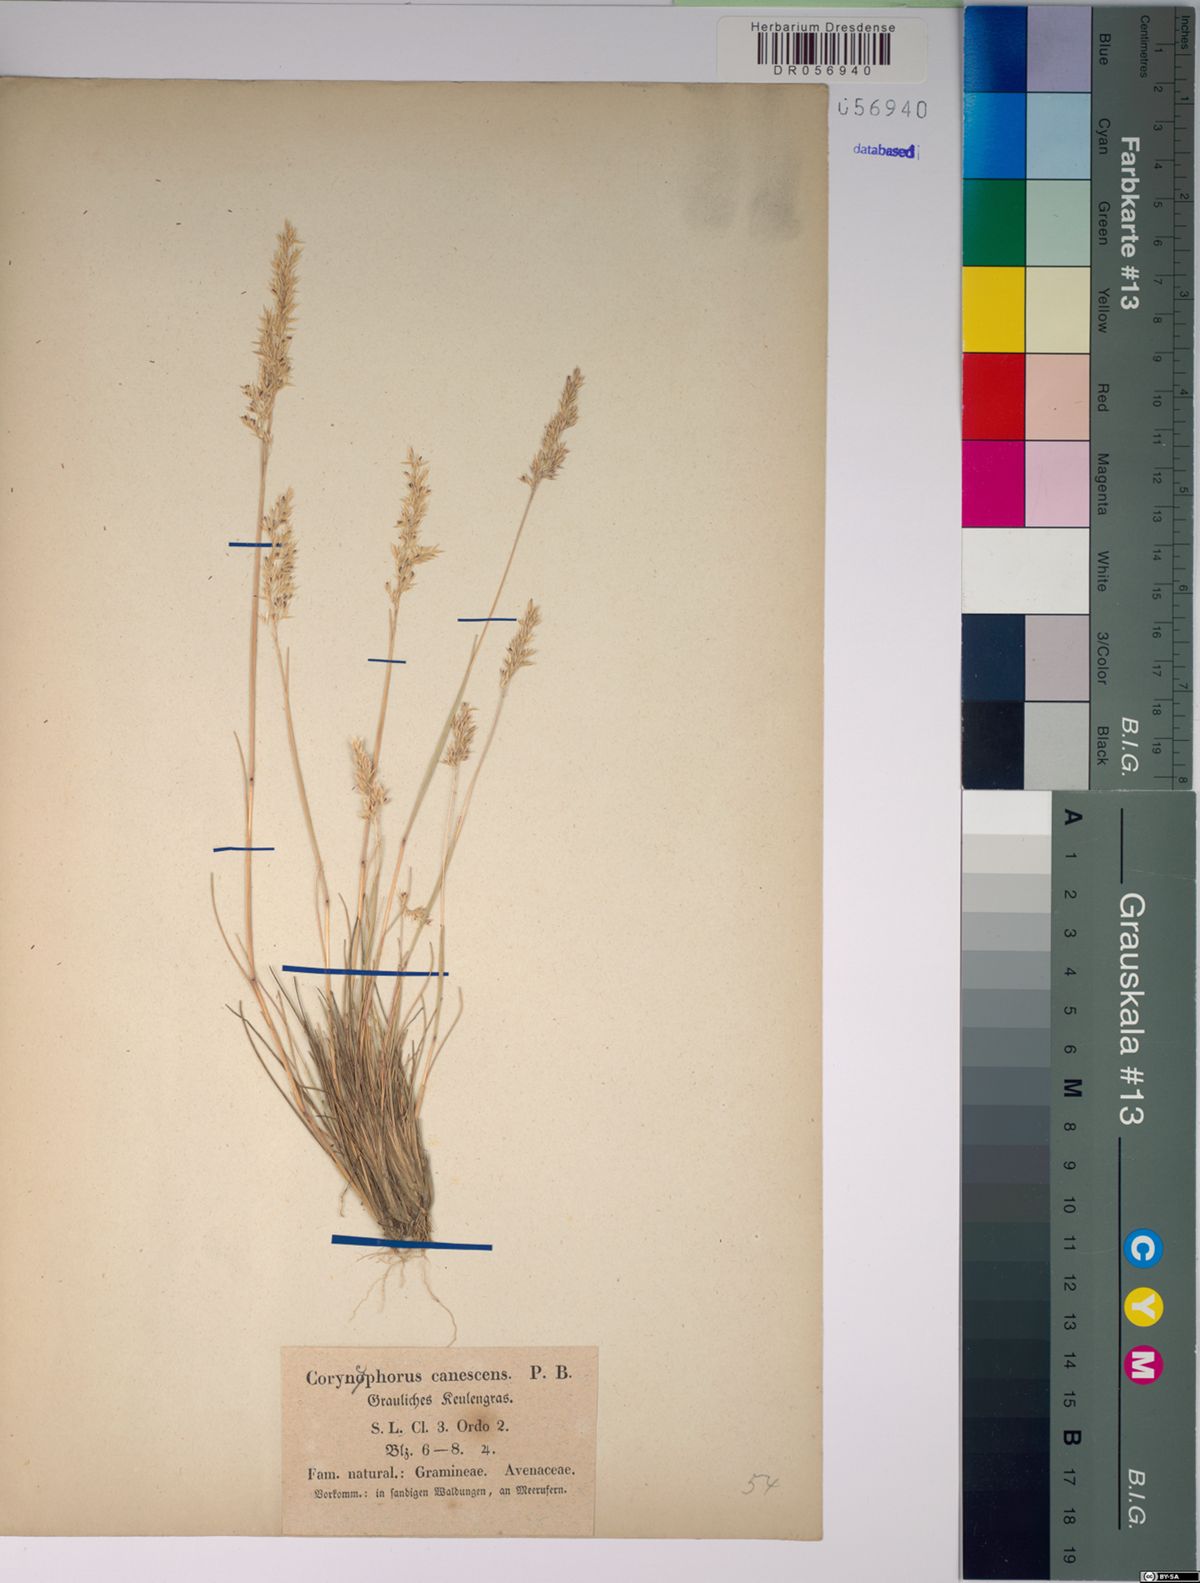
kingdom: Plantae
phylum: Tracheophyta
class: Liliopsida
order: Poales
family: Poaceae
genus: Corynephorus
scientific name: Corynephorus canescens
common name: Grey hair-grass
